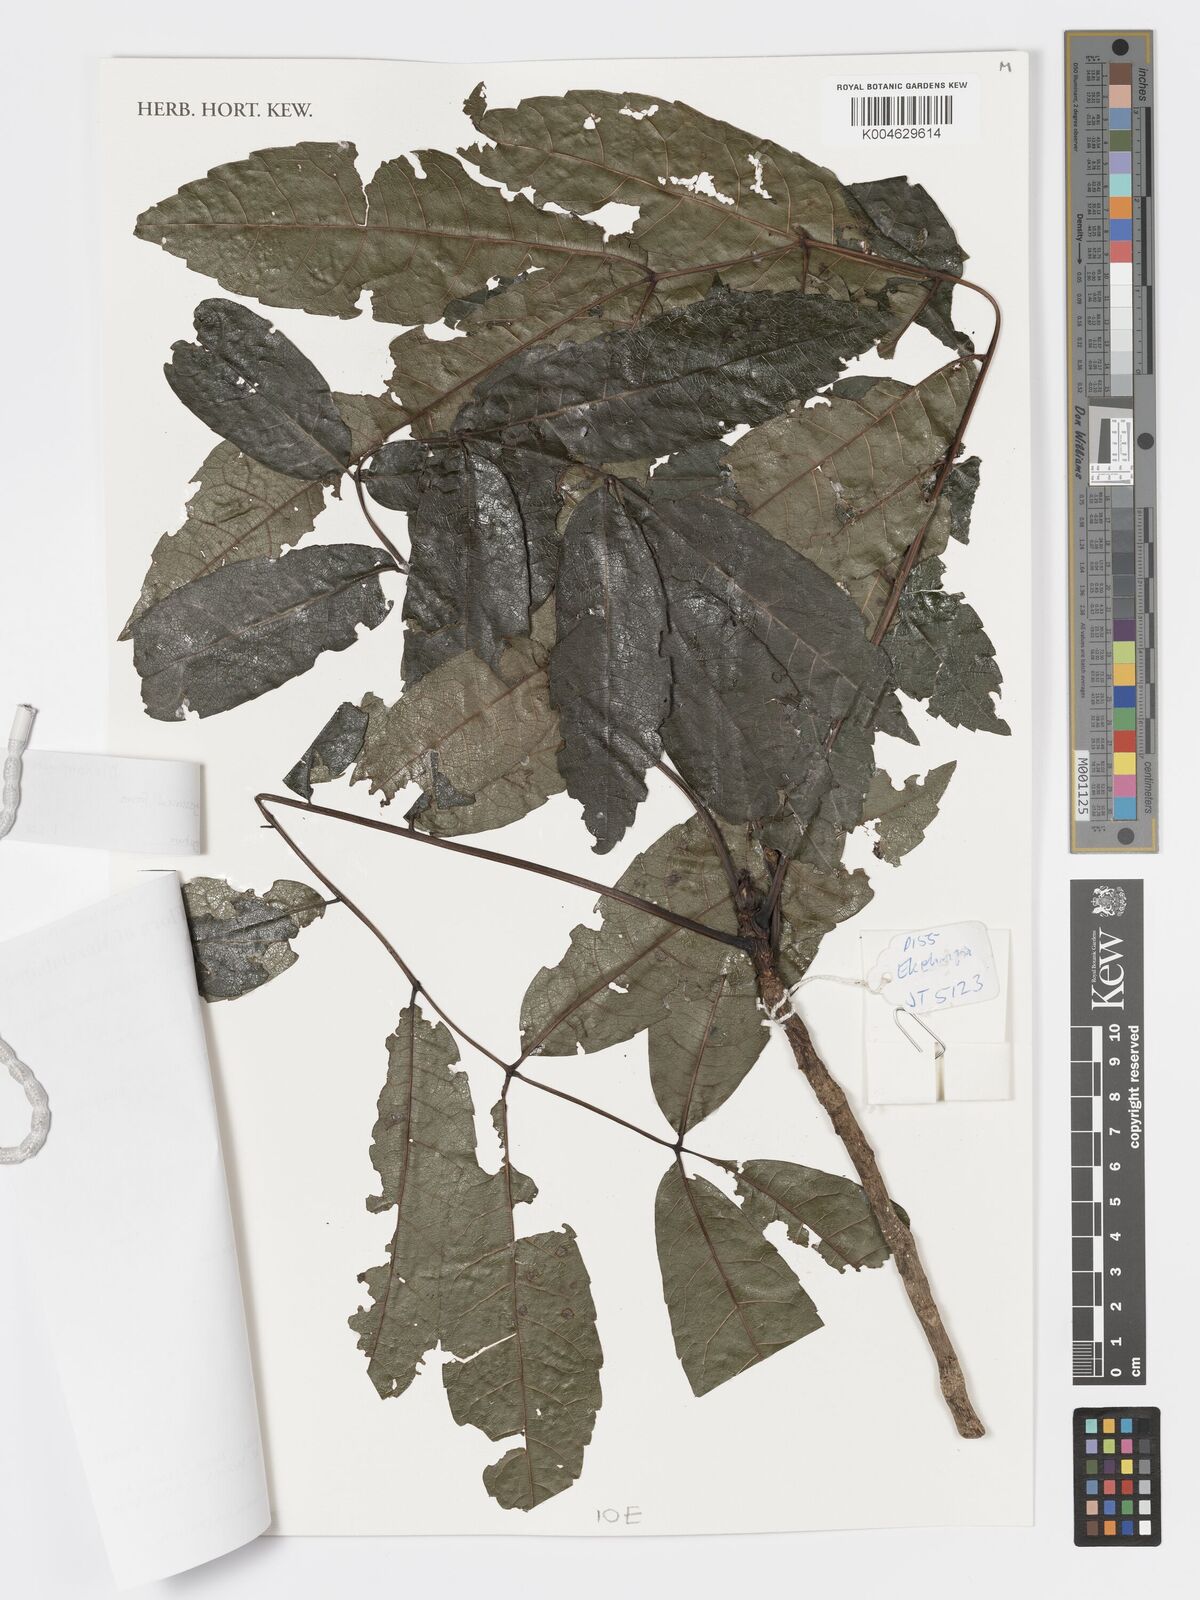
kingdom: Plantae
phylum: Tracheophyta
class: Magnoliopsida
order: Geraniales
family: Melianthaceae
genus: Bersama
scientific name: Bersama abyssinica
